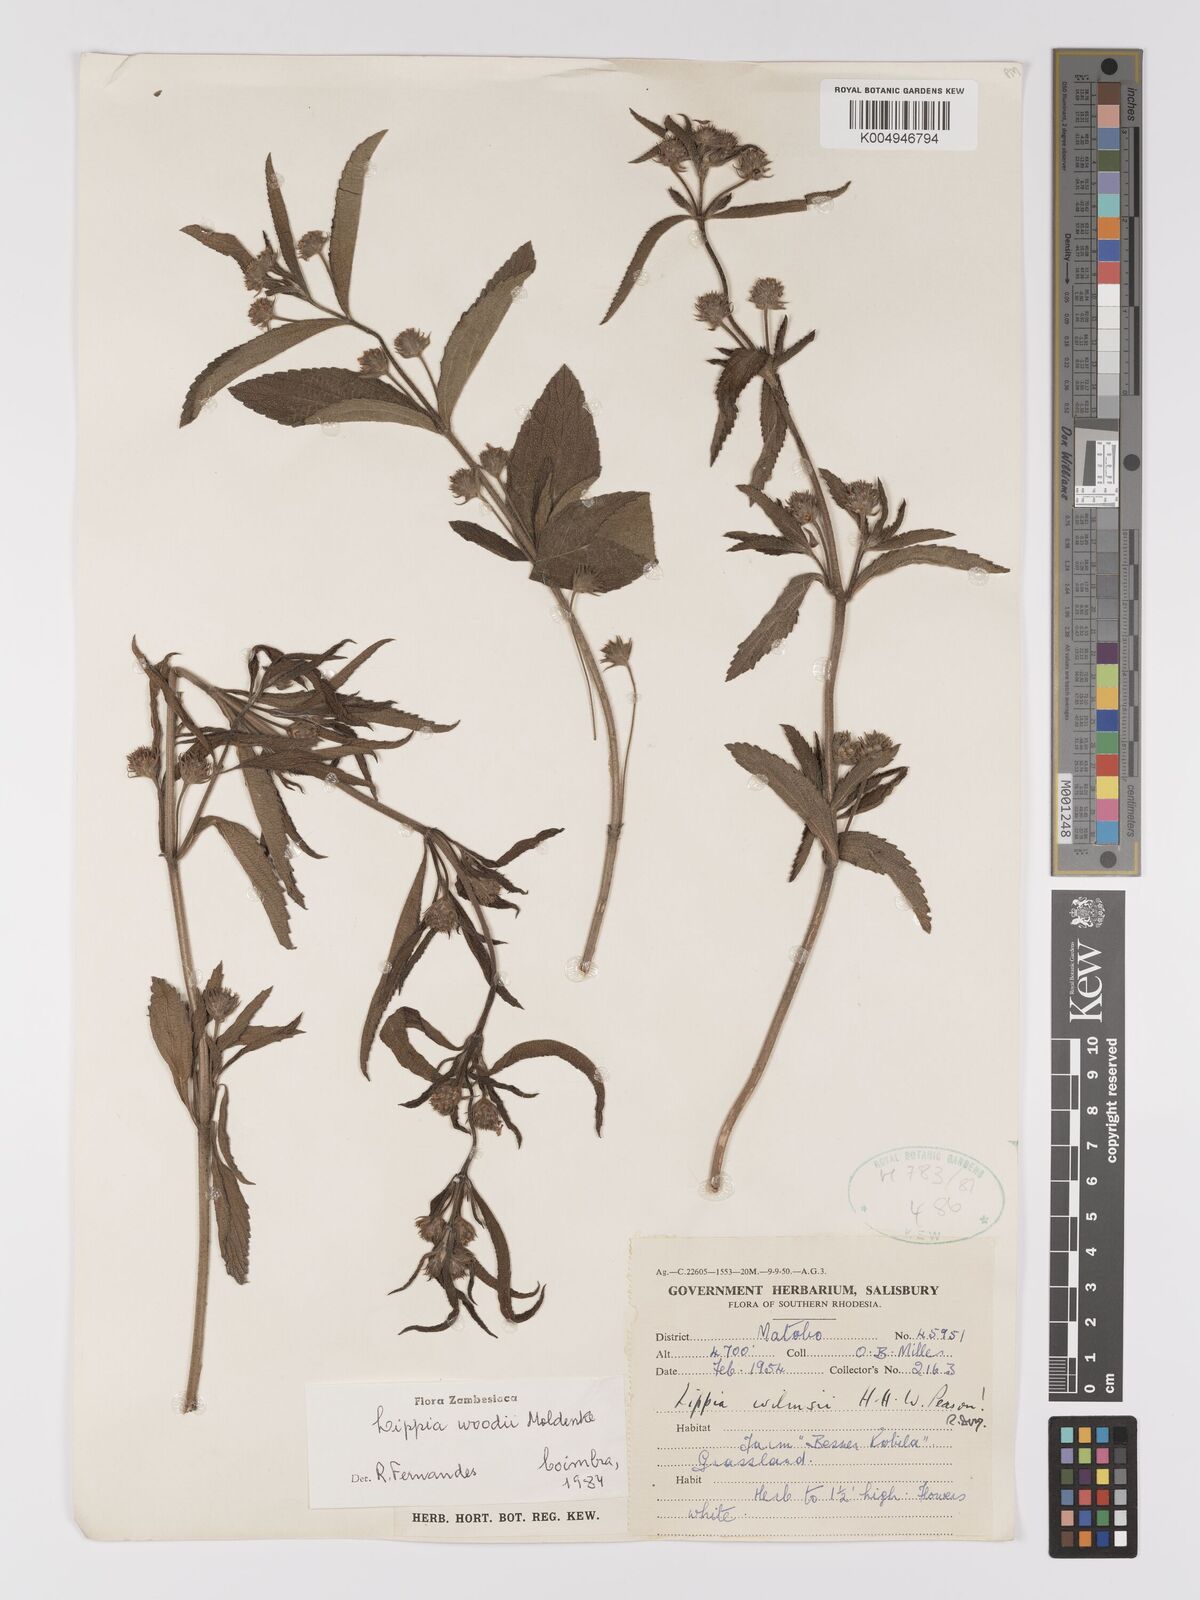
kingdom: Plantae
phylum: Tracheophyta
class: Magnoliopsida
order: Lamiales
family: Verbenaceae
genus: Lippia
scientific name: Lippia woodii
